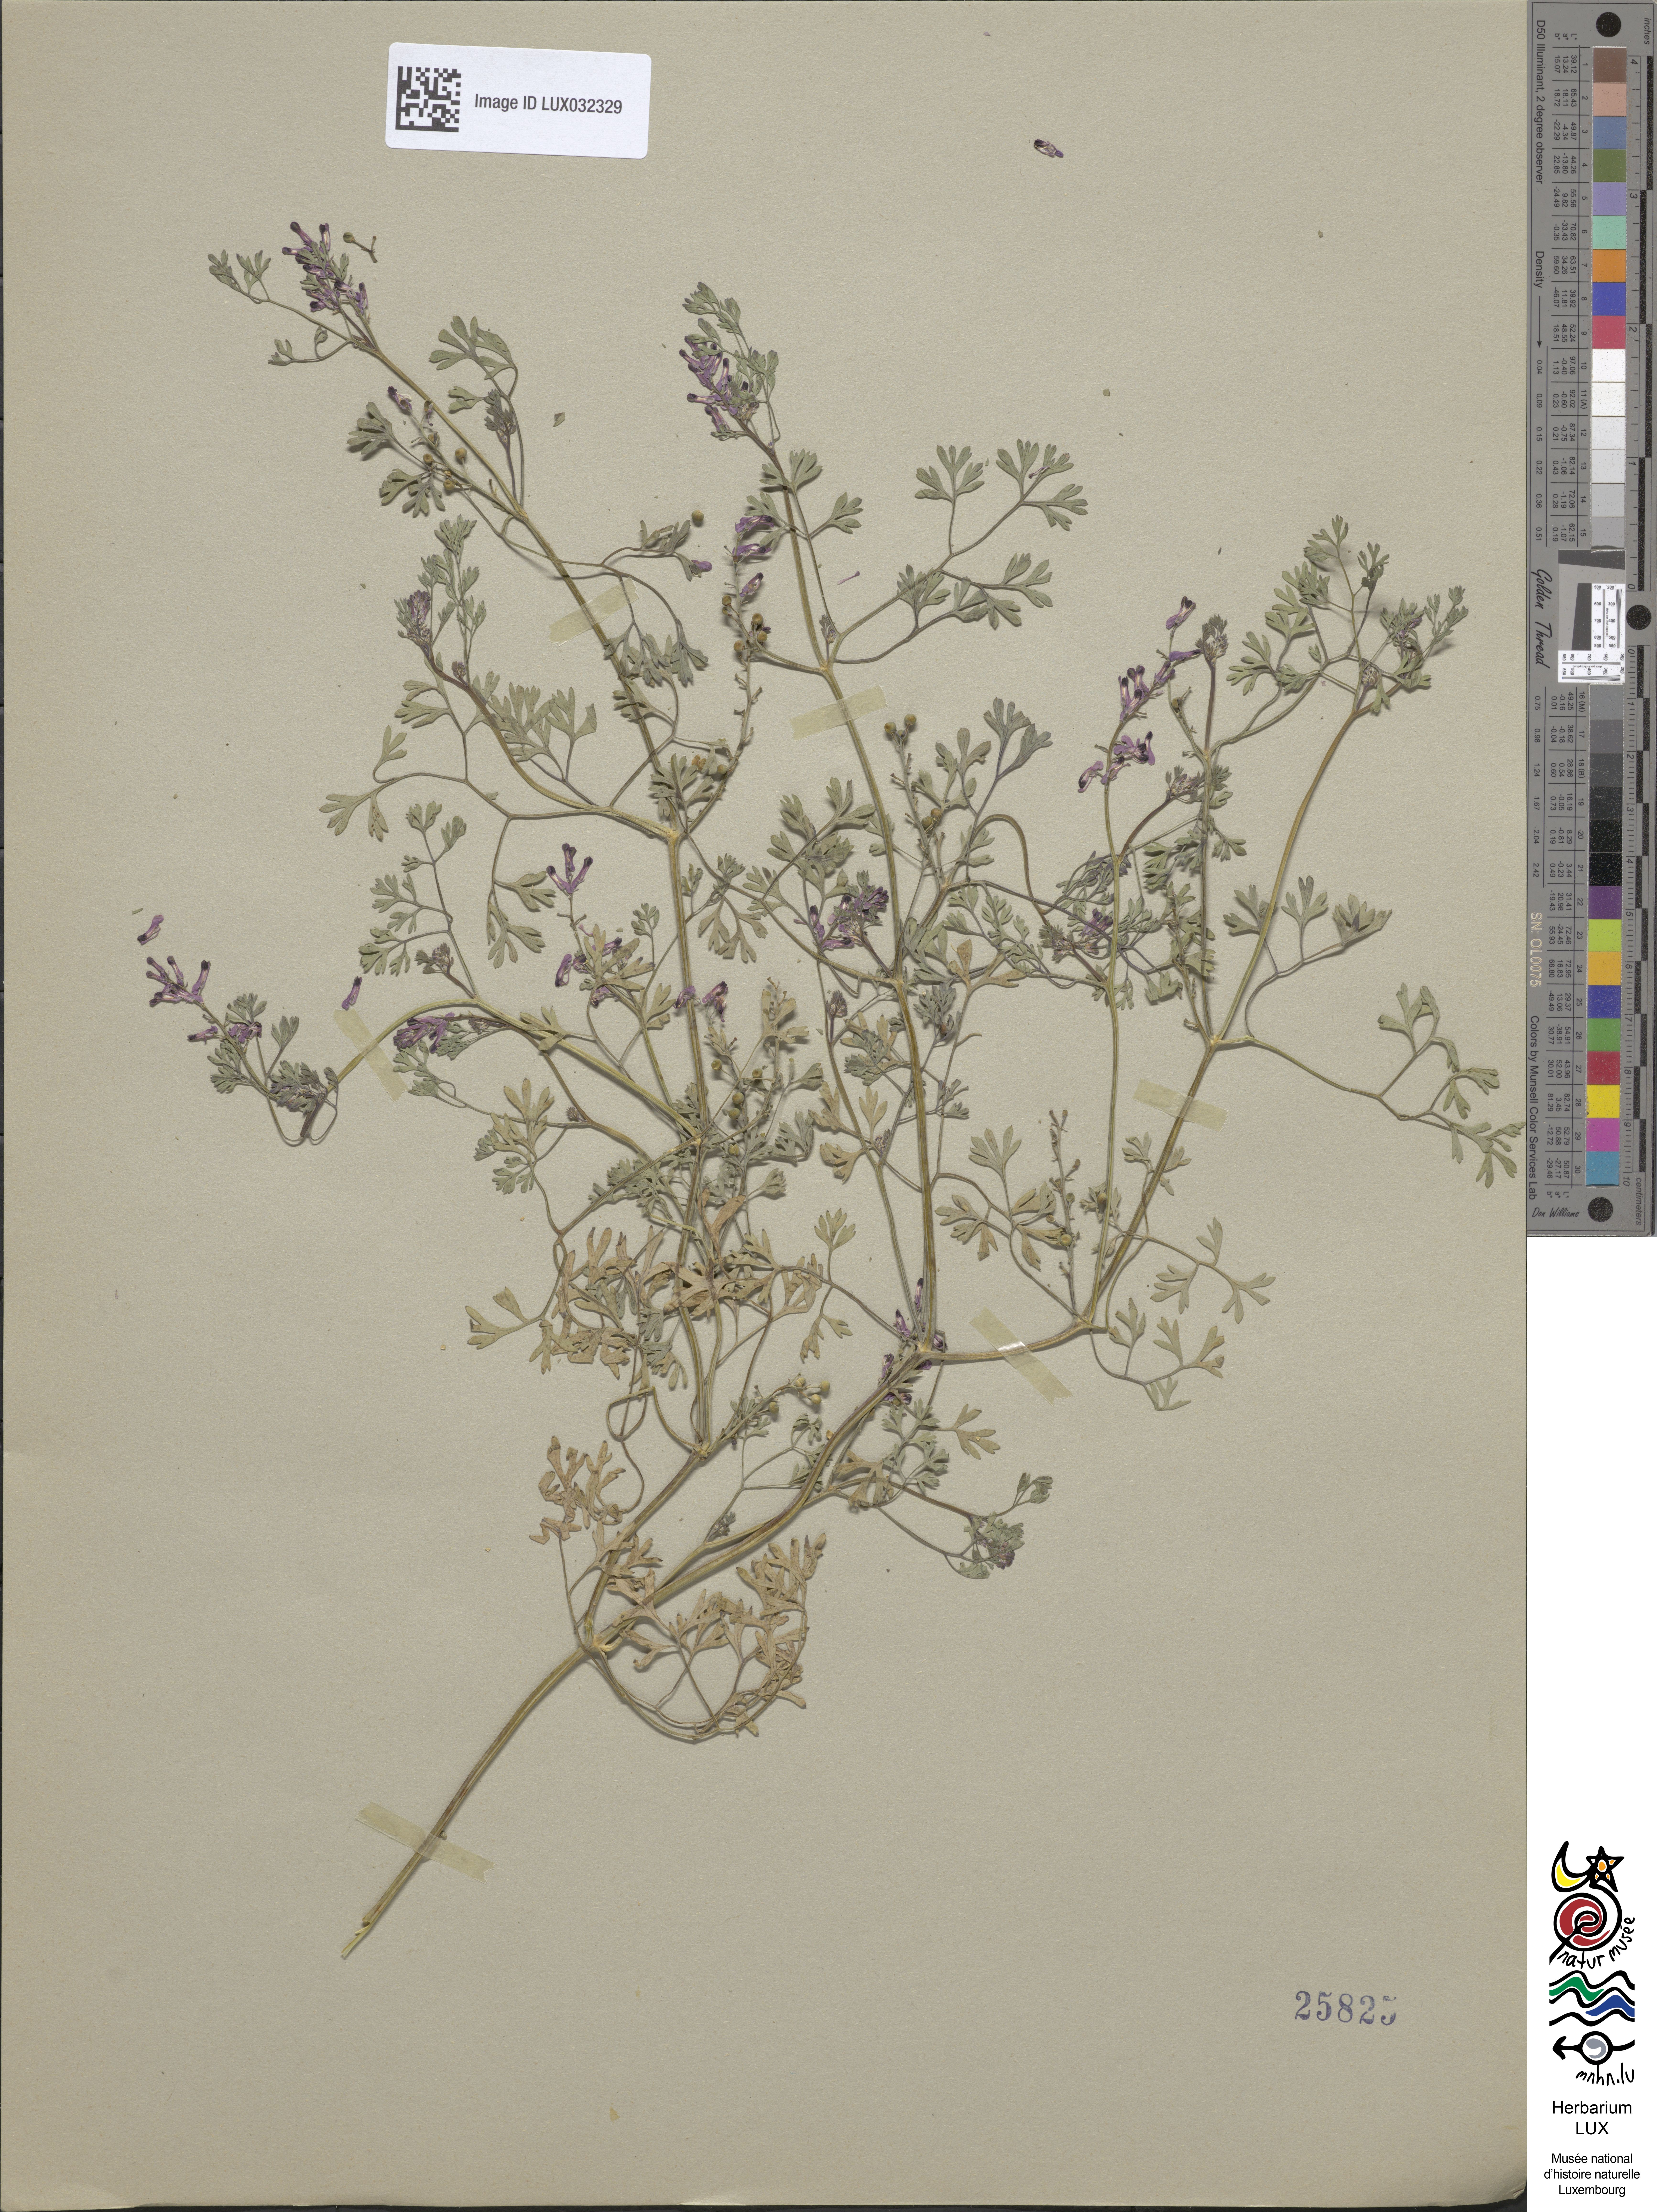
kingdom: Plantae
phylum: Tracheophyta
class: Magnoliopsida
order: Ranunculales
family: Papaveraceae
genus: Fumaria
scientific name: Fumaria officinalis
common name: Common fumitory
